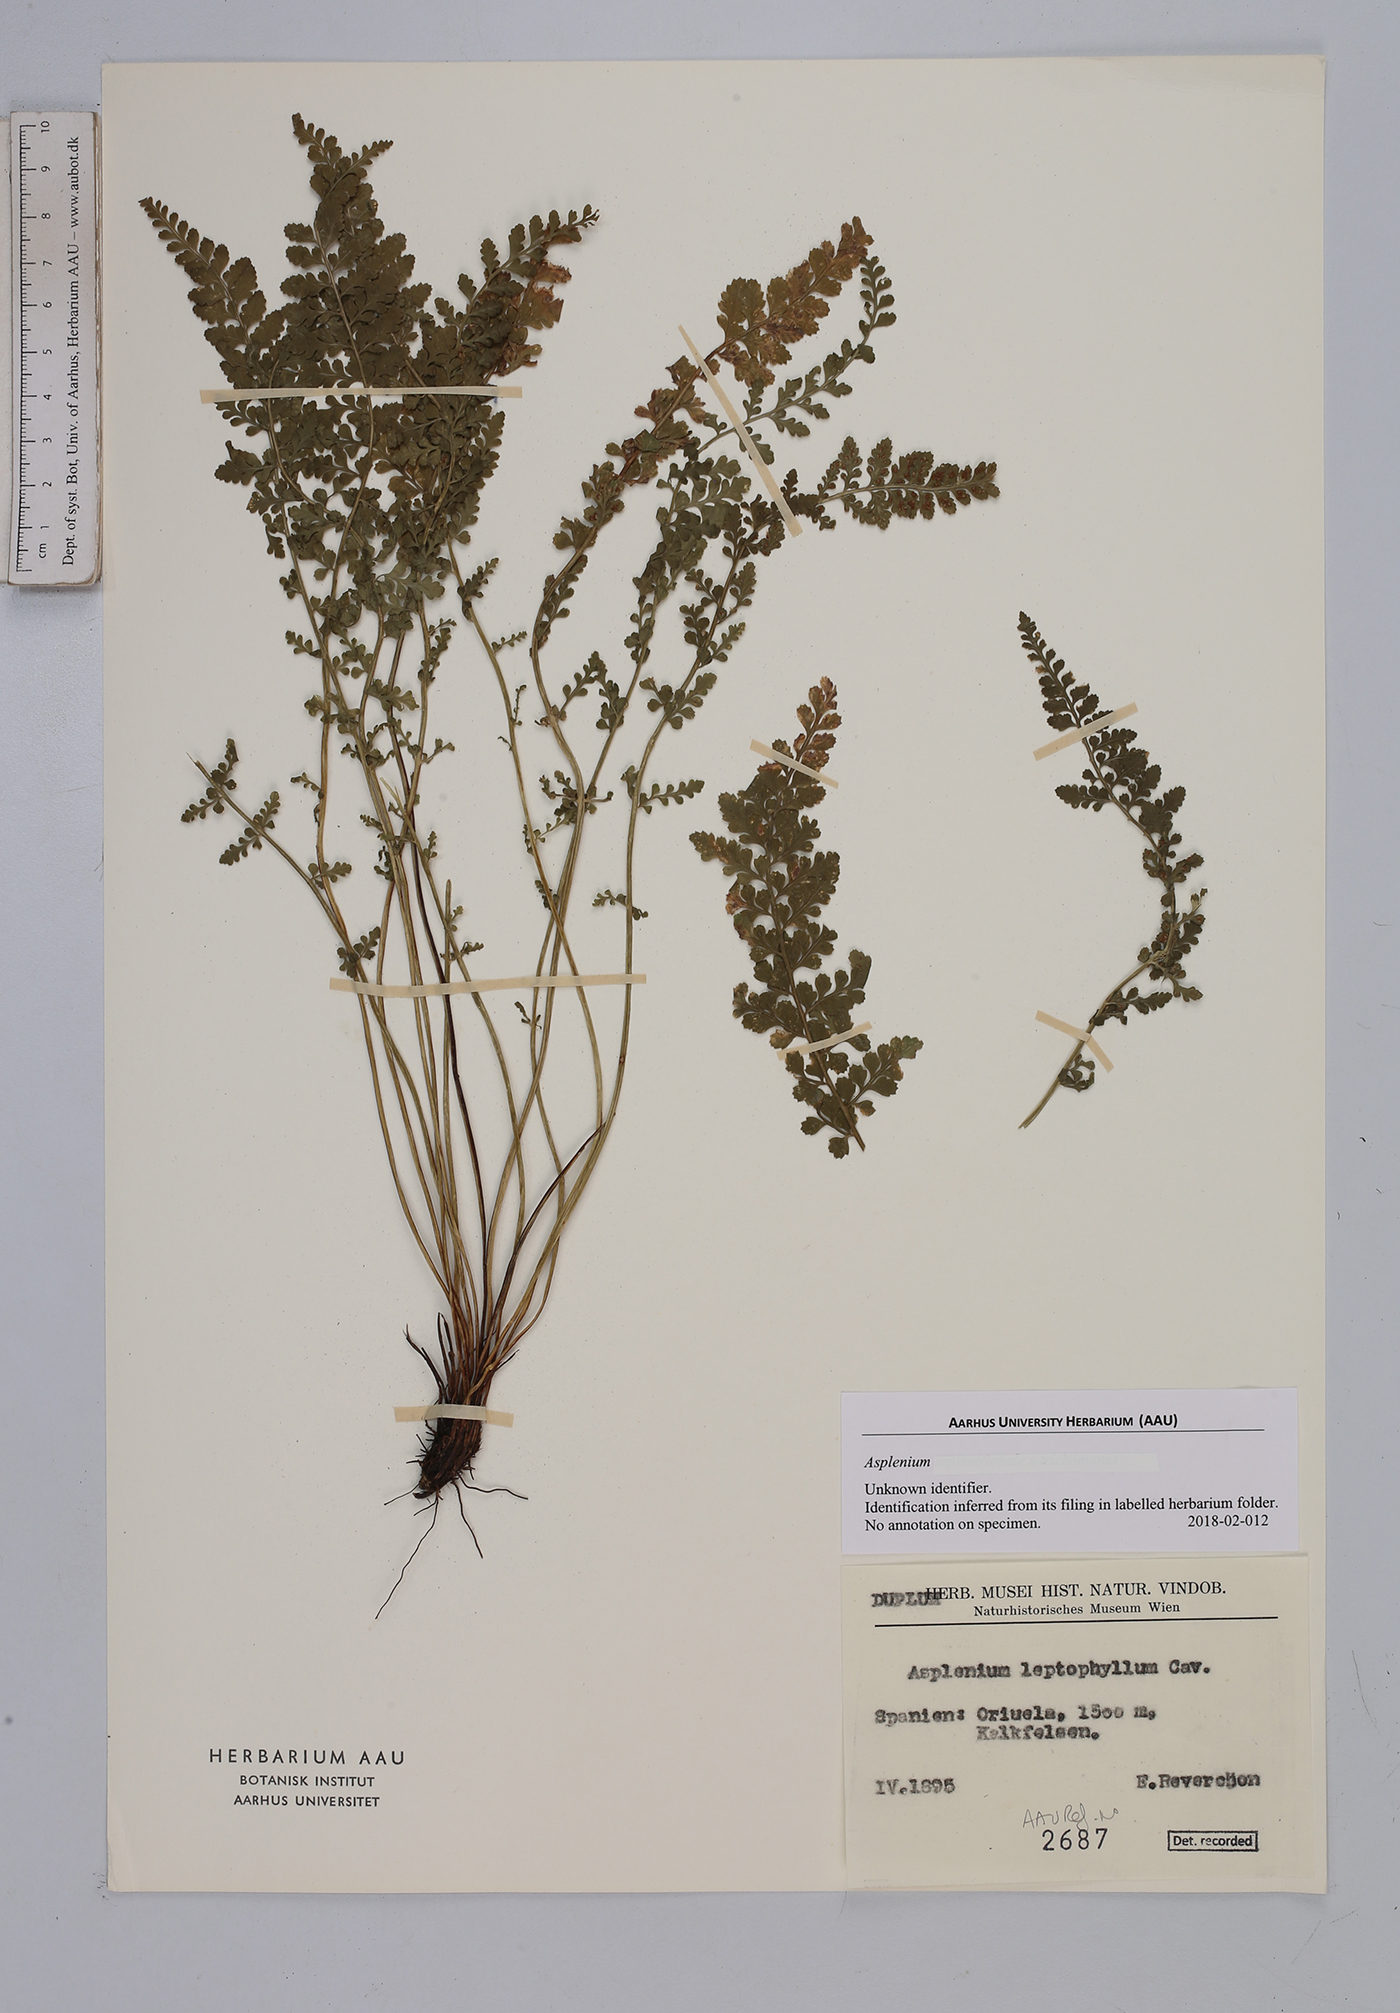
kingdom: Plantae
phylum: Tracheophyta
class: Polypodiopsida
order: Polypodiales
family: Aspleniaceae
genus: Asplenium
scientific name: Asplenium
